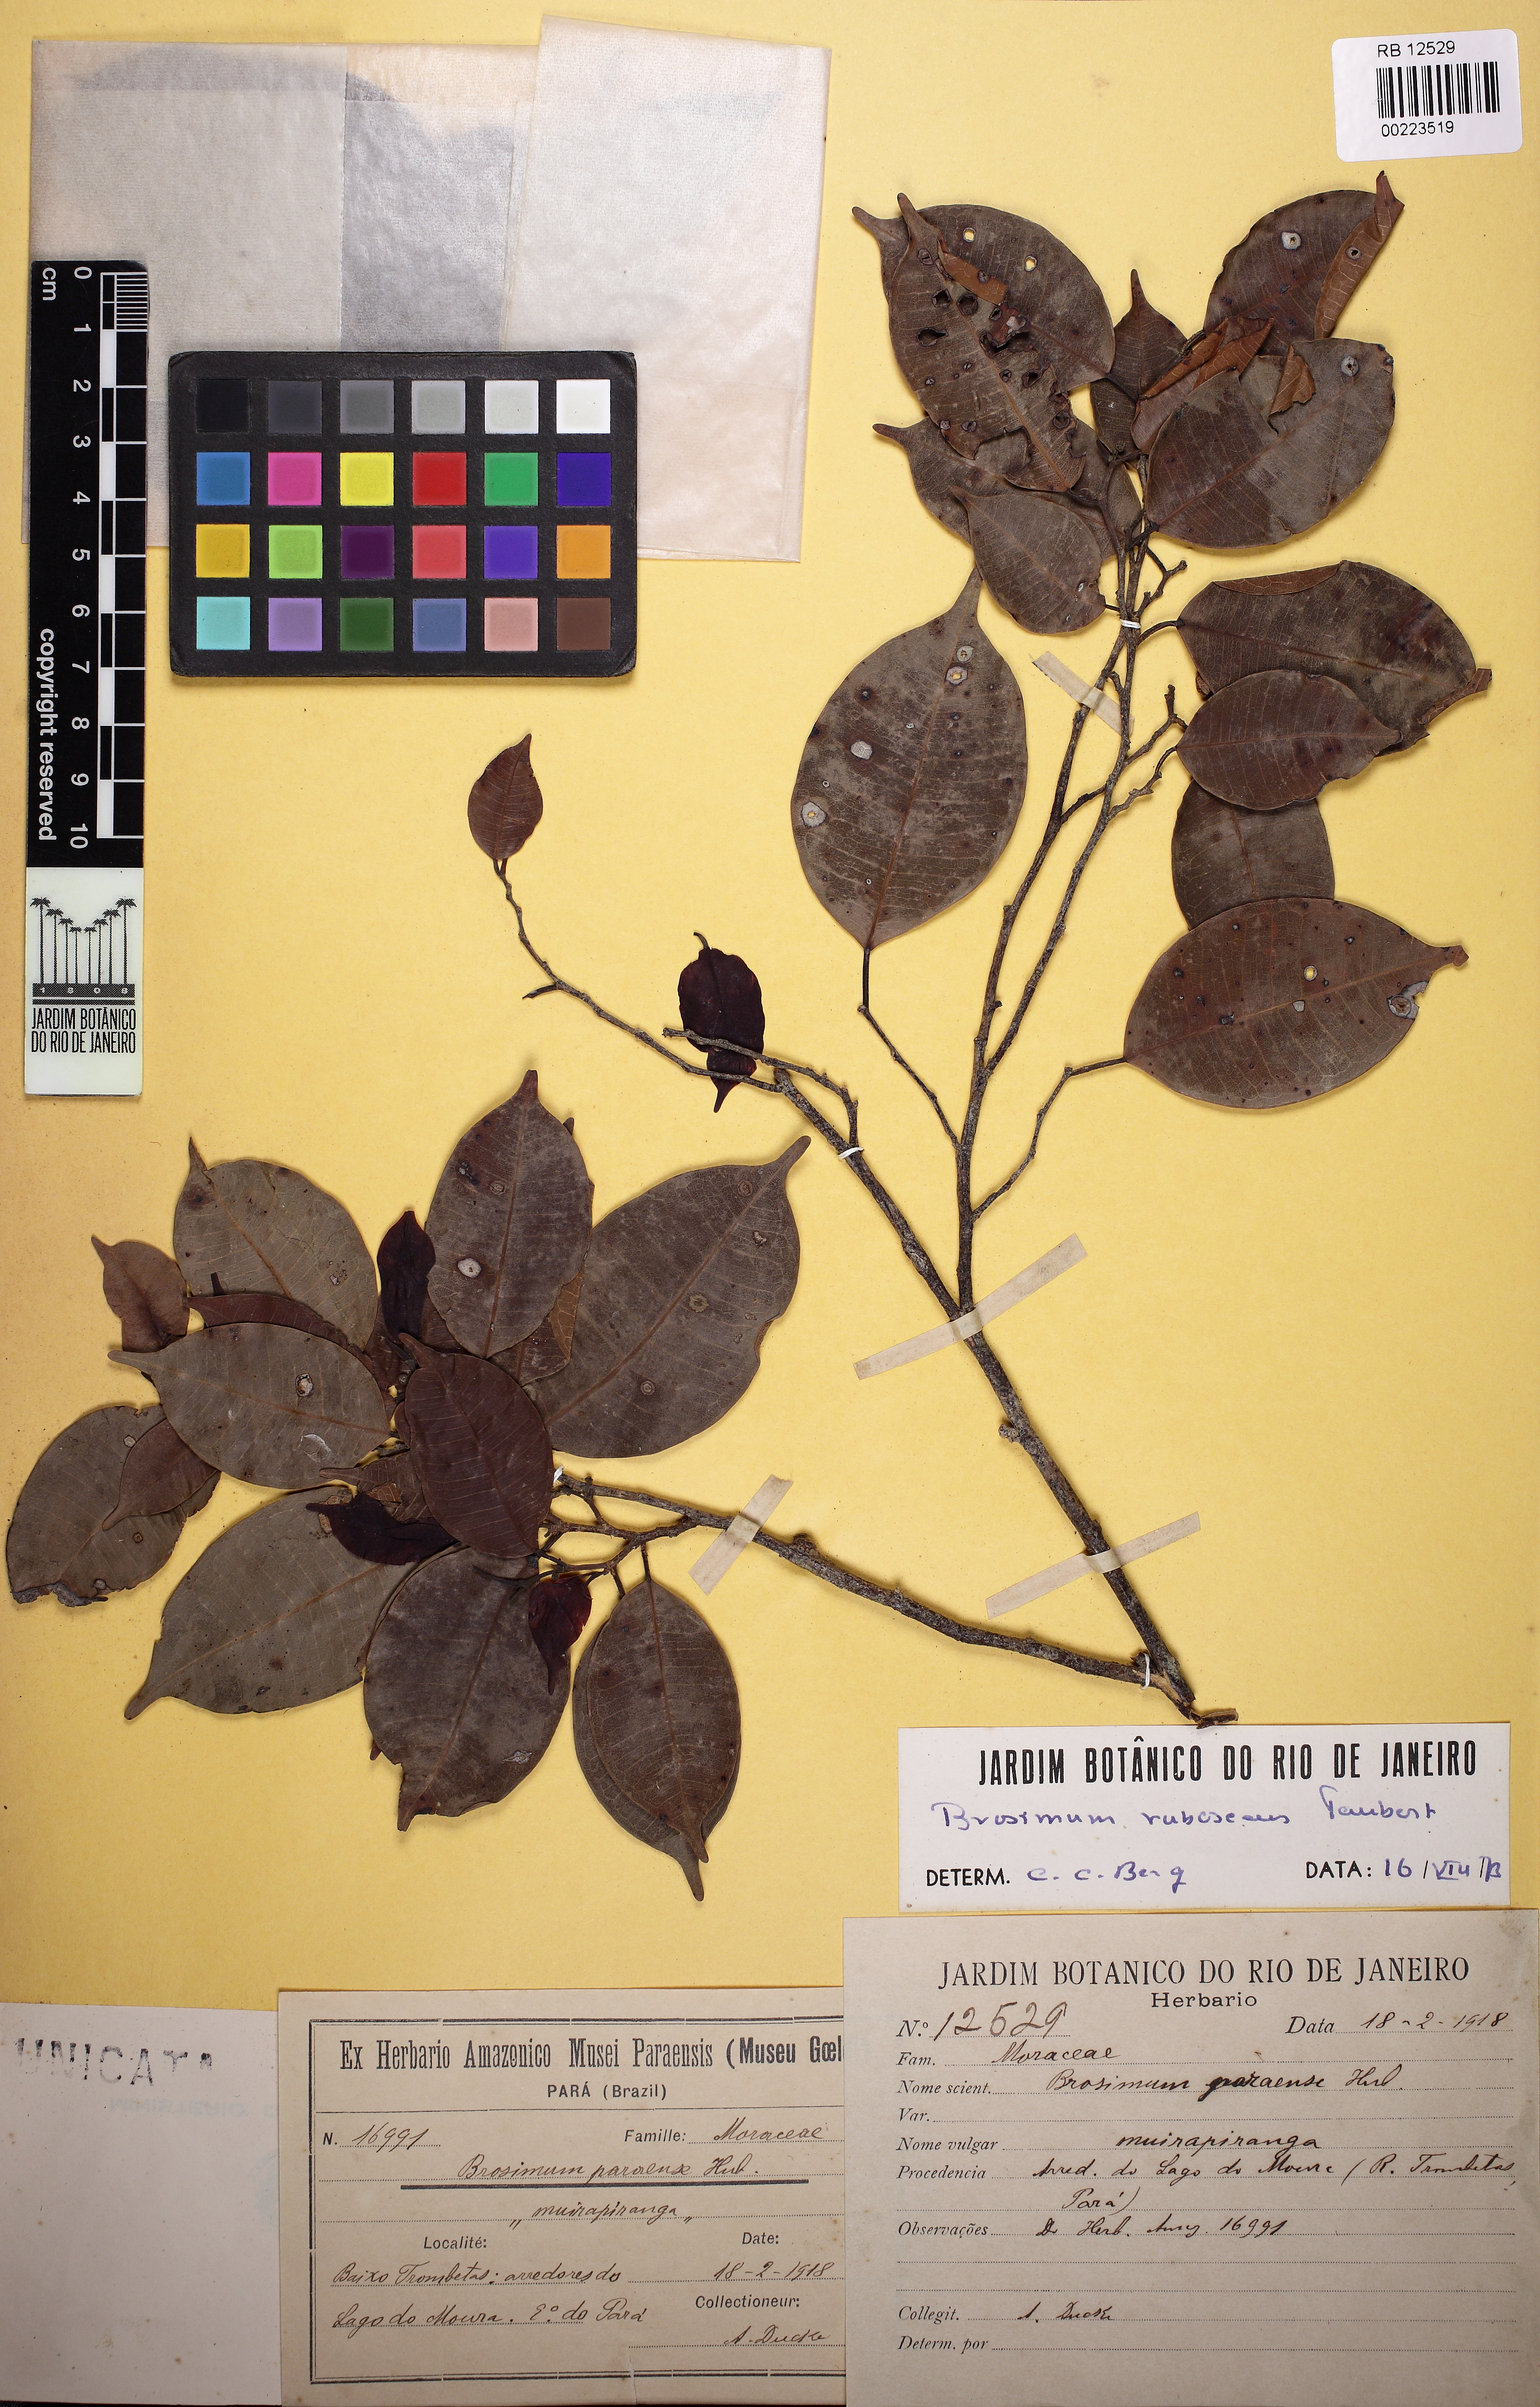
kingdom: Plantae
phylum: Tracheophyta
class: Magnoliopsida
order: Rosales
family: Moraceae
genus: Brosimum
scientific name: Brosimum rubescens
